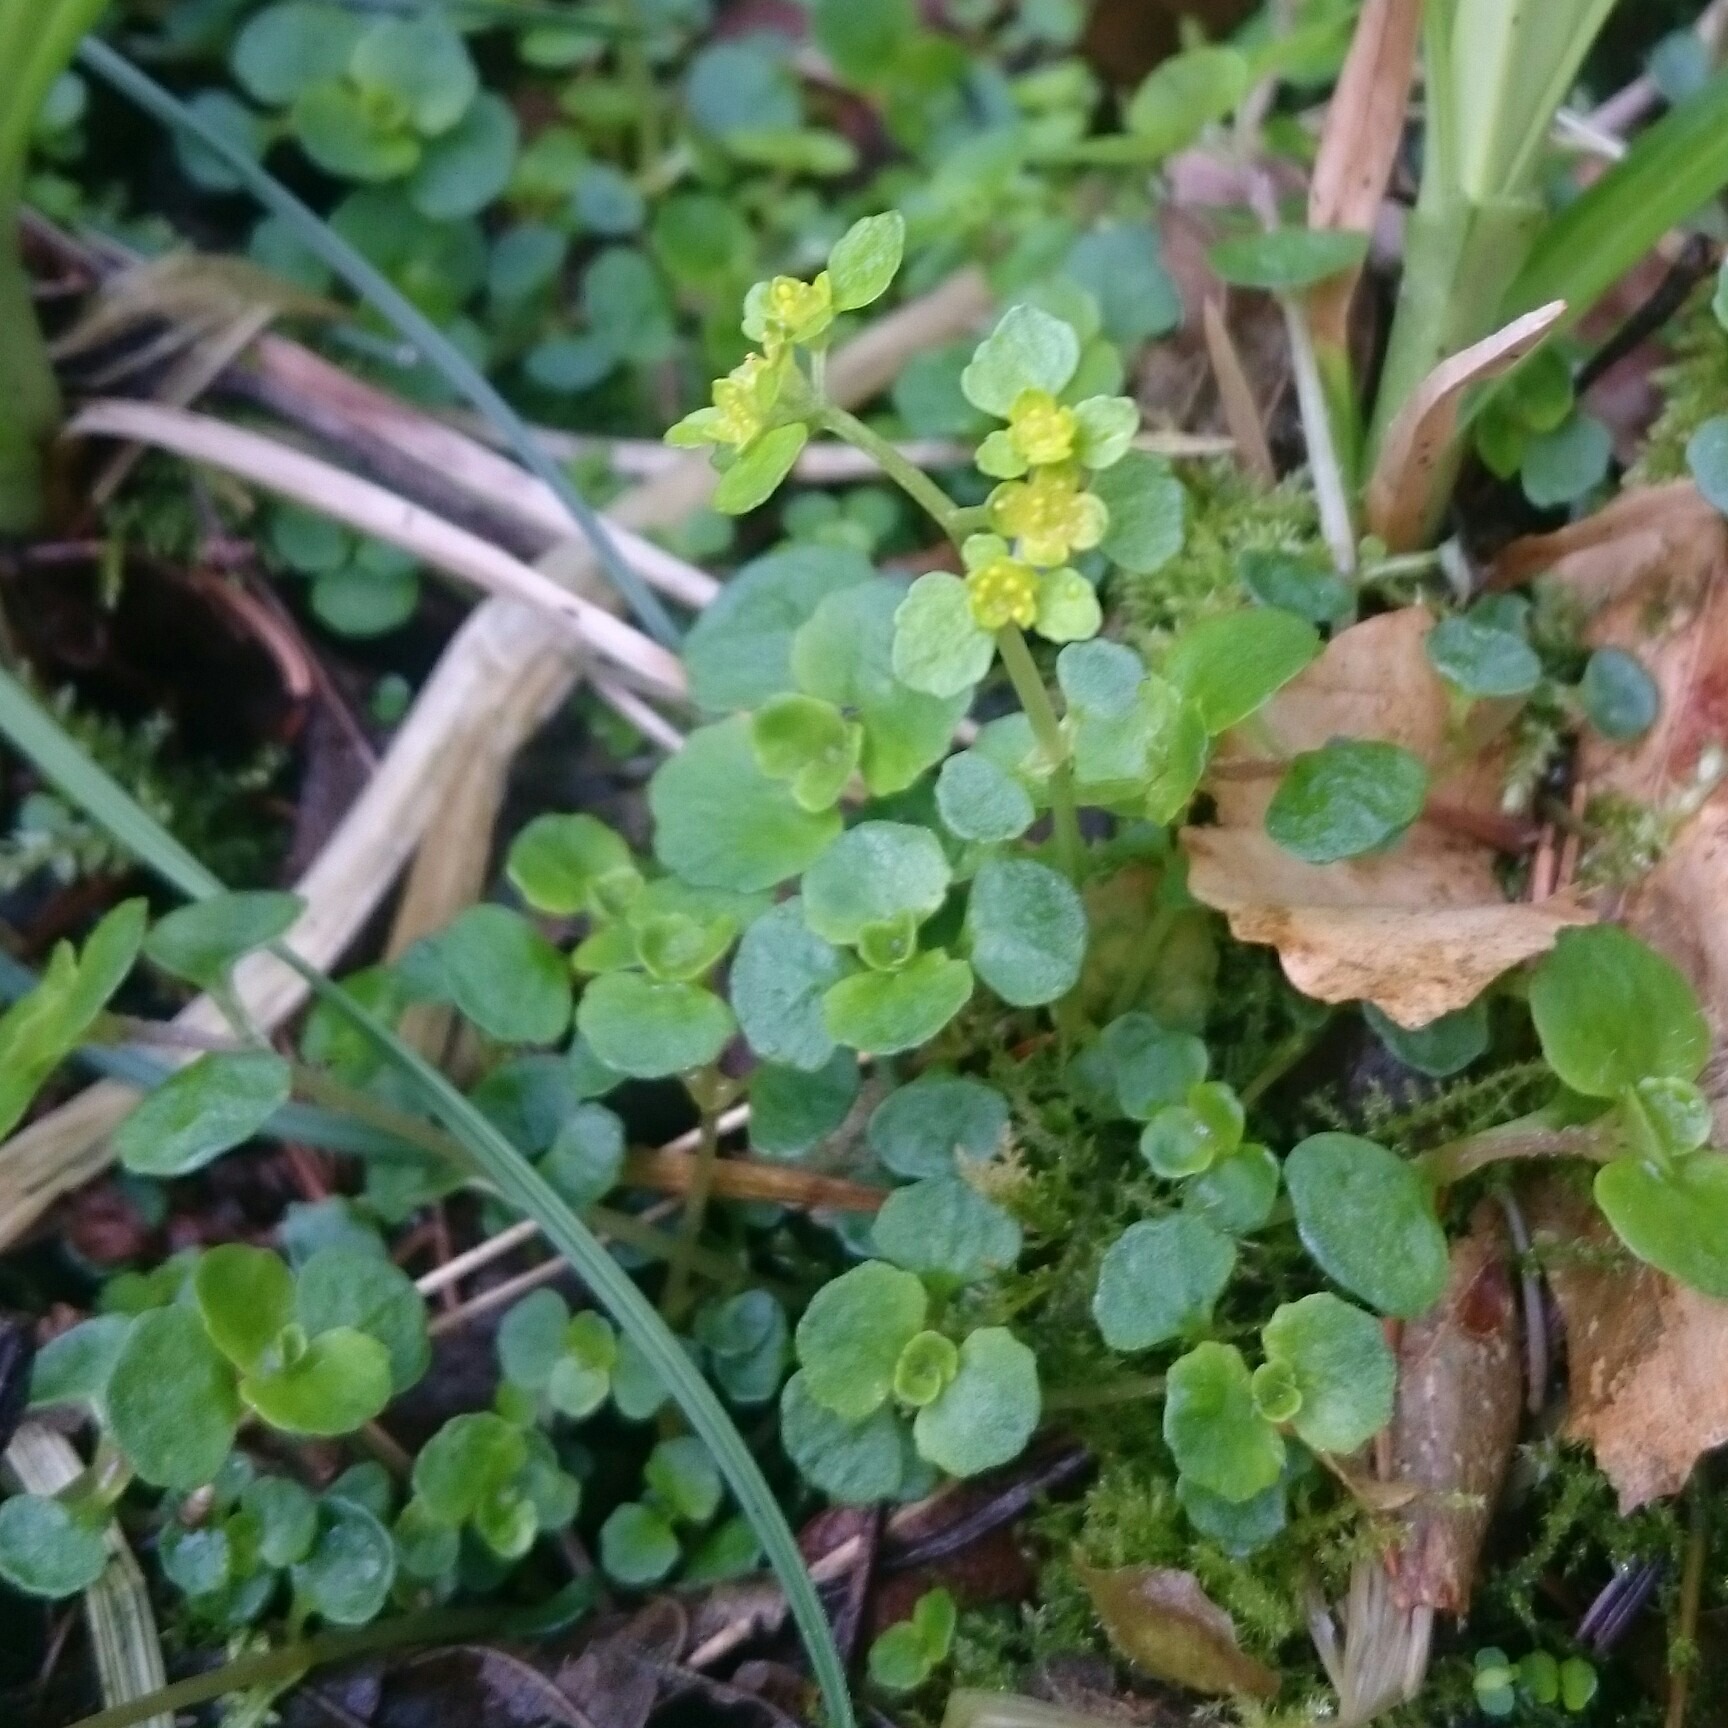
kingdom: Plantae
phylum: Tracheophyta
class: Magnoliopsida
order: Saxifragales
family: Saxifragaceae
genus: Chrysosplenium
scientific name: Chrysosplenium oppositifolium
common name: Småbladet milturt
